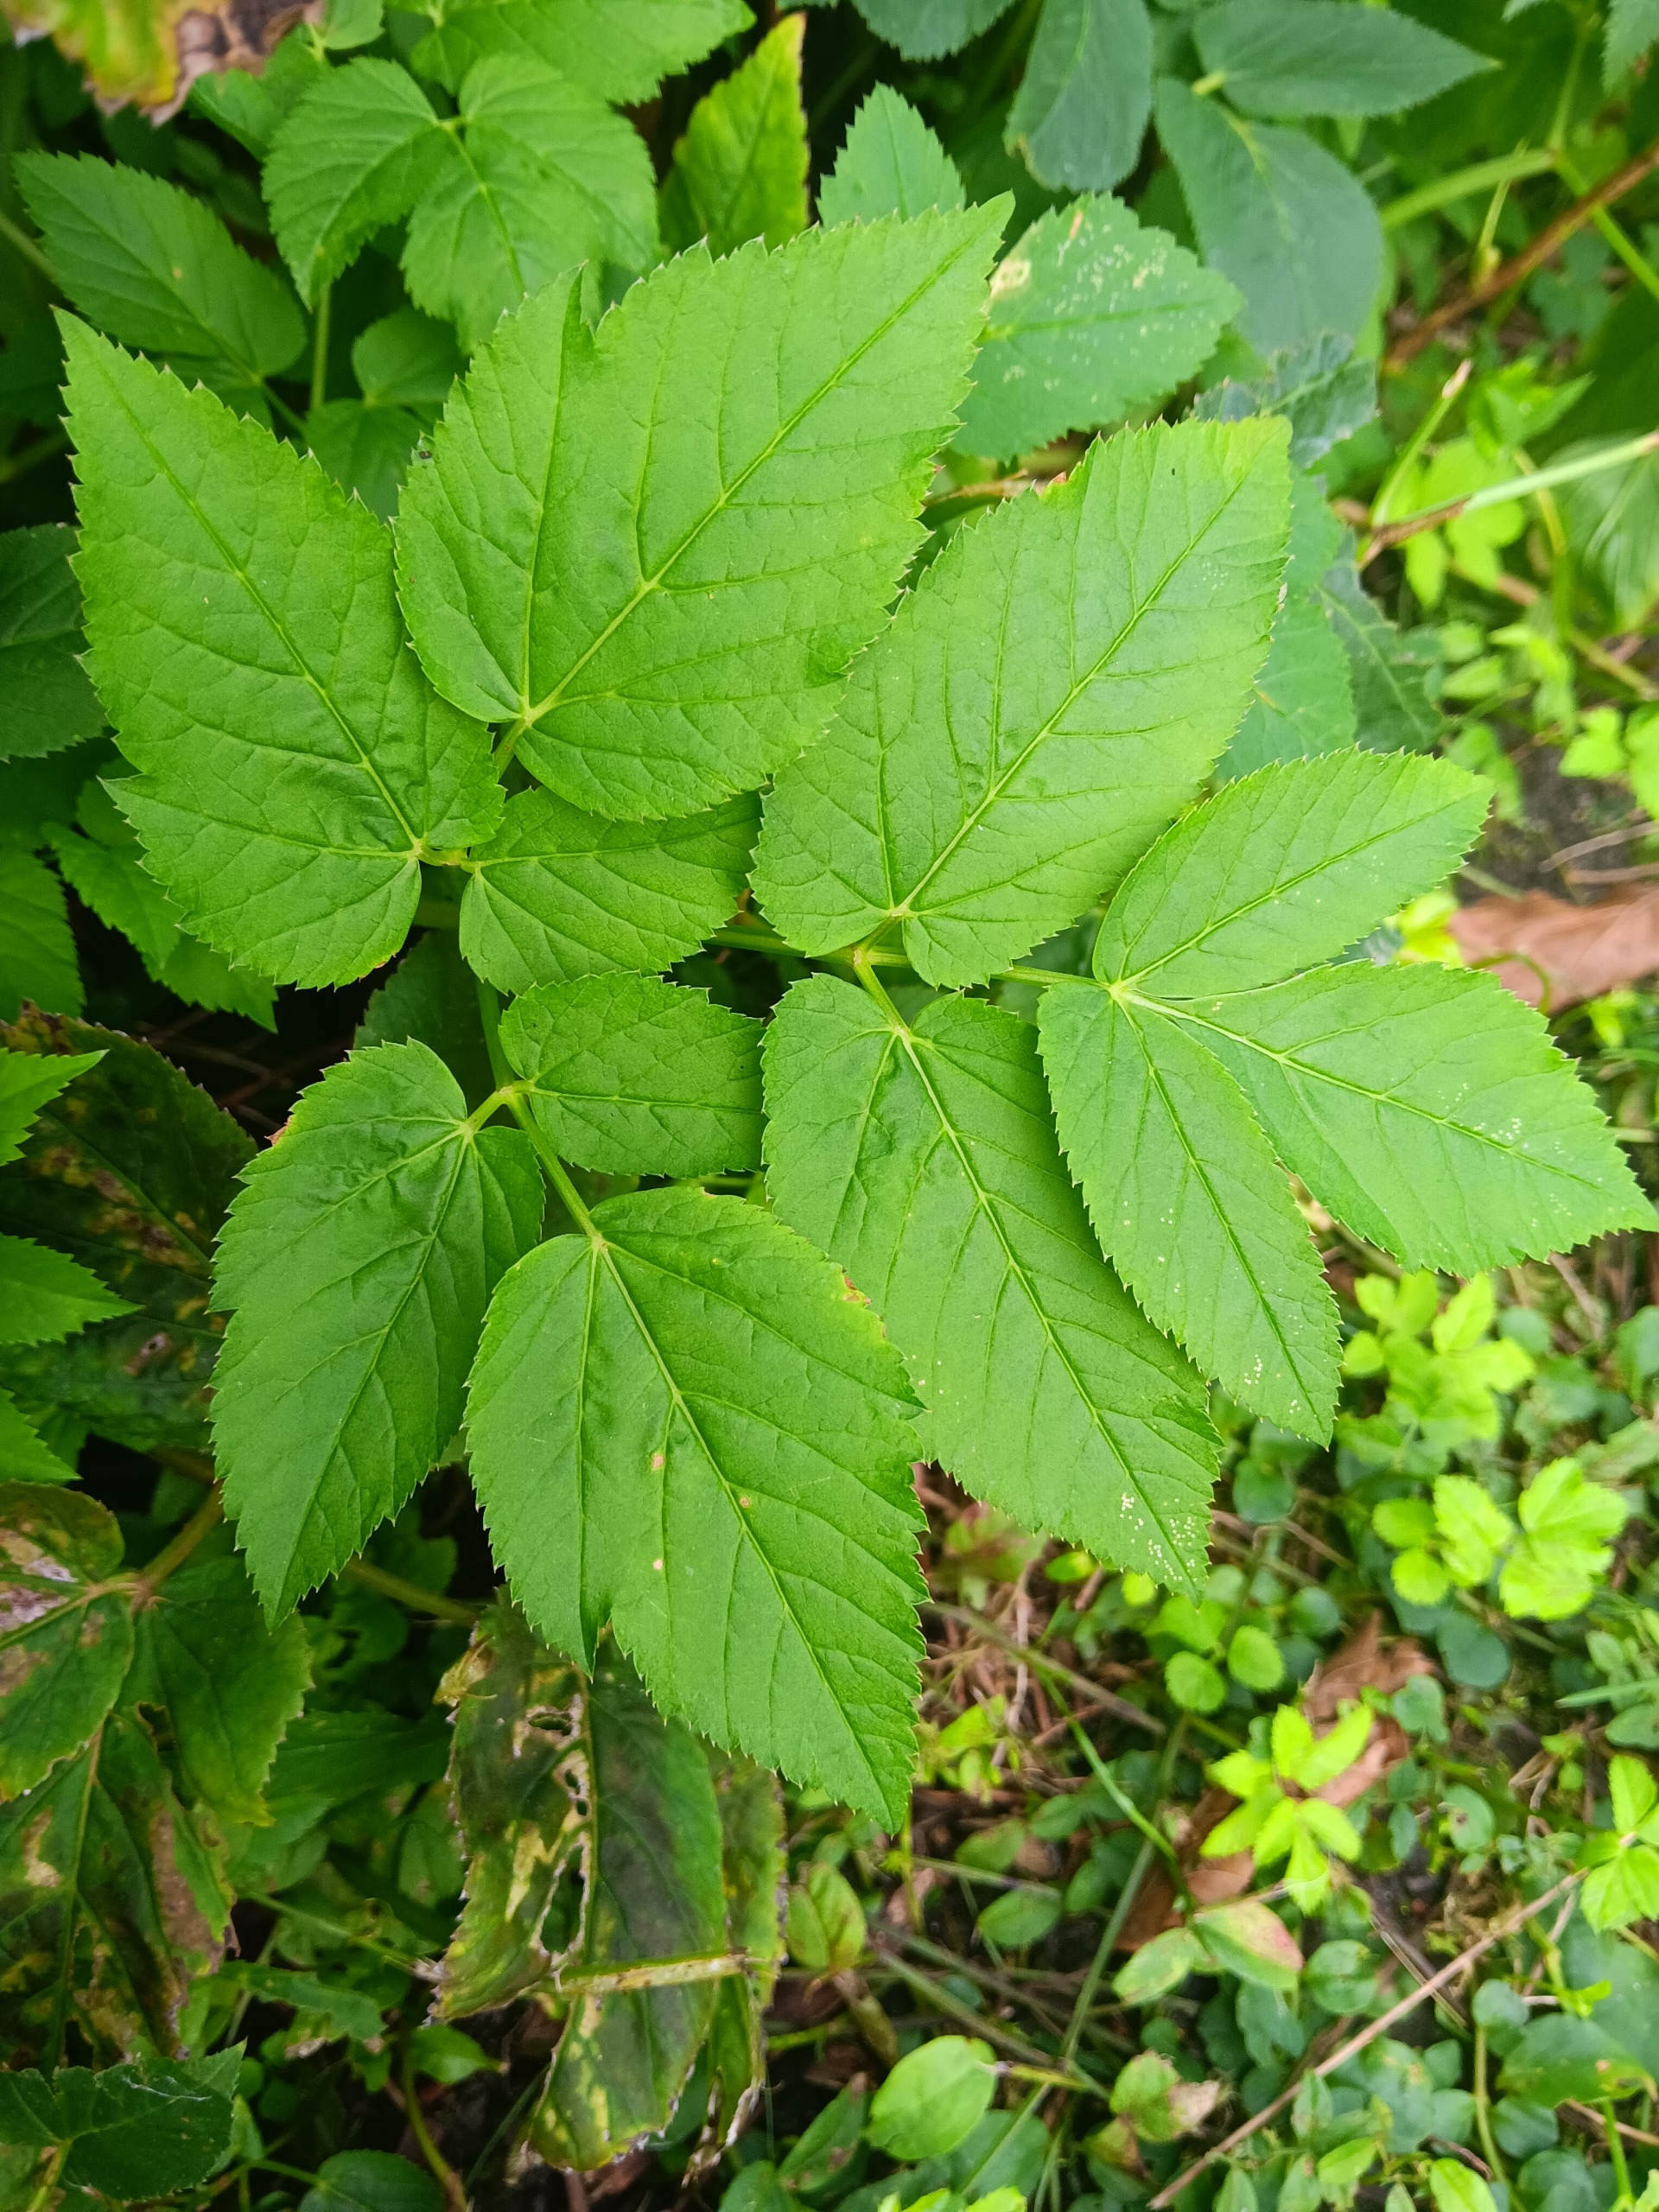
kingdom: Plantae
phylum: Tracheophyta
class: Magnoliopsida
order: Apiales
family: Apiaceae
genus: Aegopodium
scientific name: Aegopodium podagraria
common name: Skvalderkål
